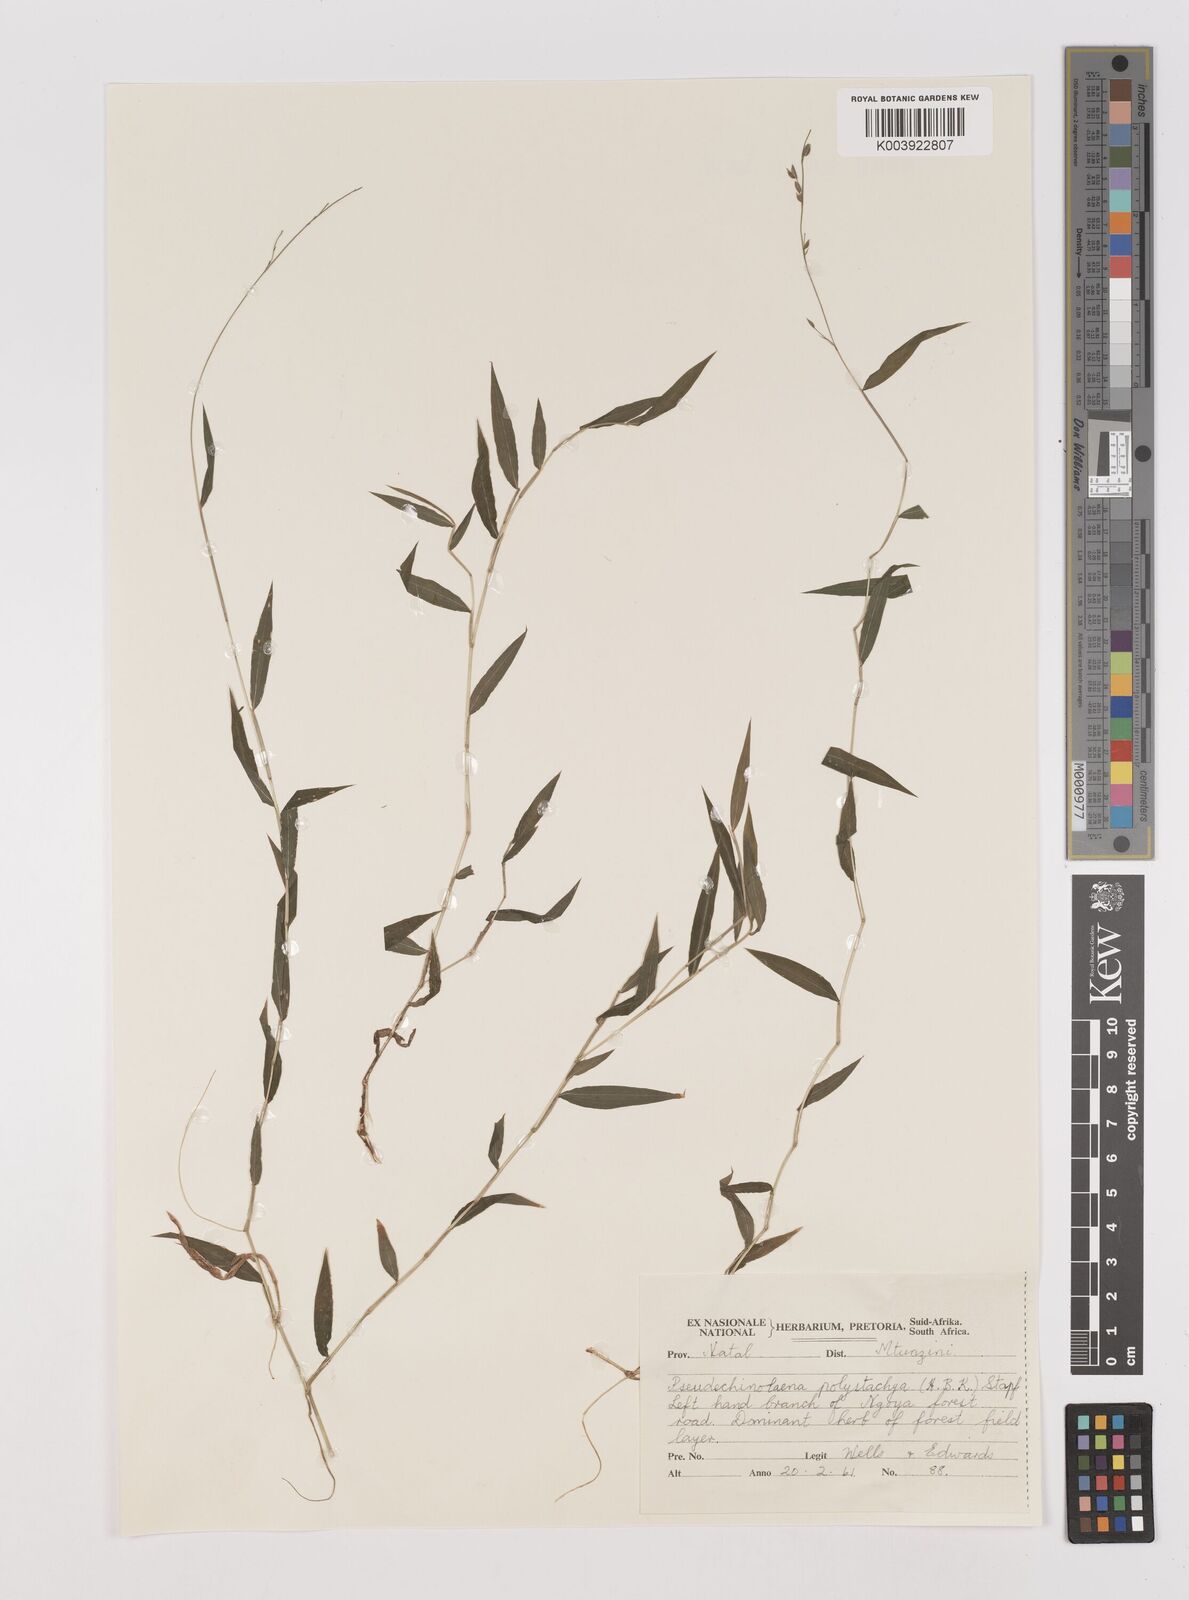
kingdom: Plantae
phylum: Tracheophyta
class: Liliopsida
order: Poales
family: Poaceae
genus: Pseudechinolaena
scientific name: Pseudechinolaena polystachya
